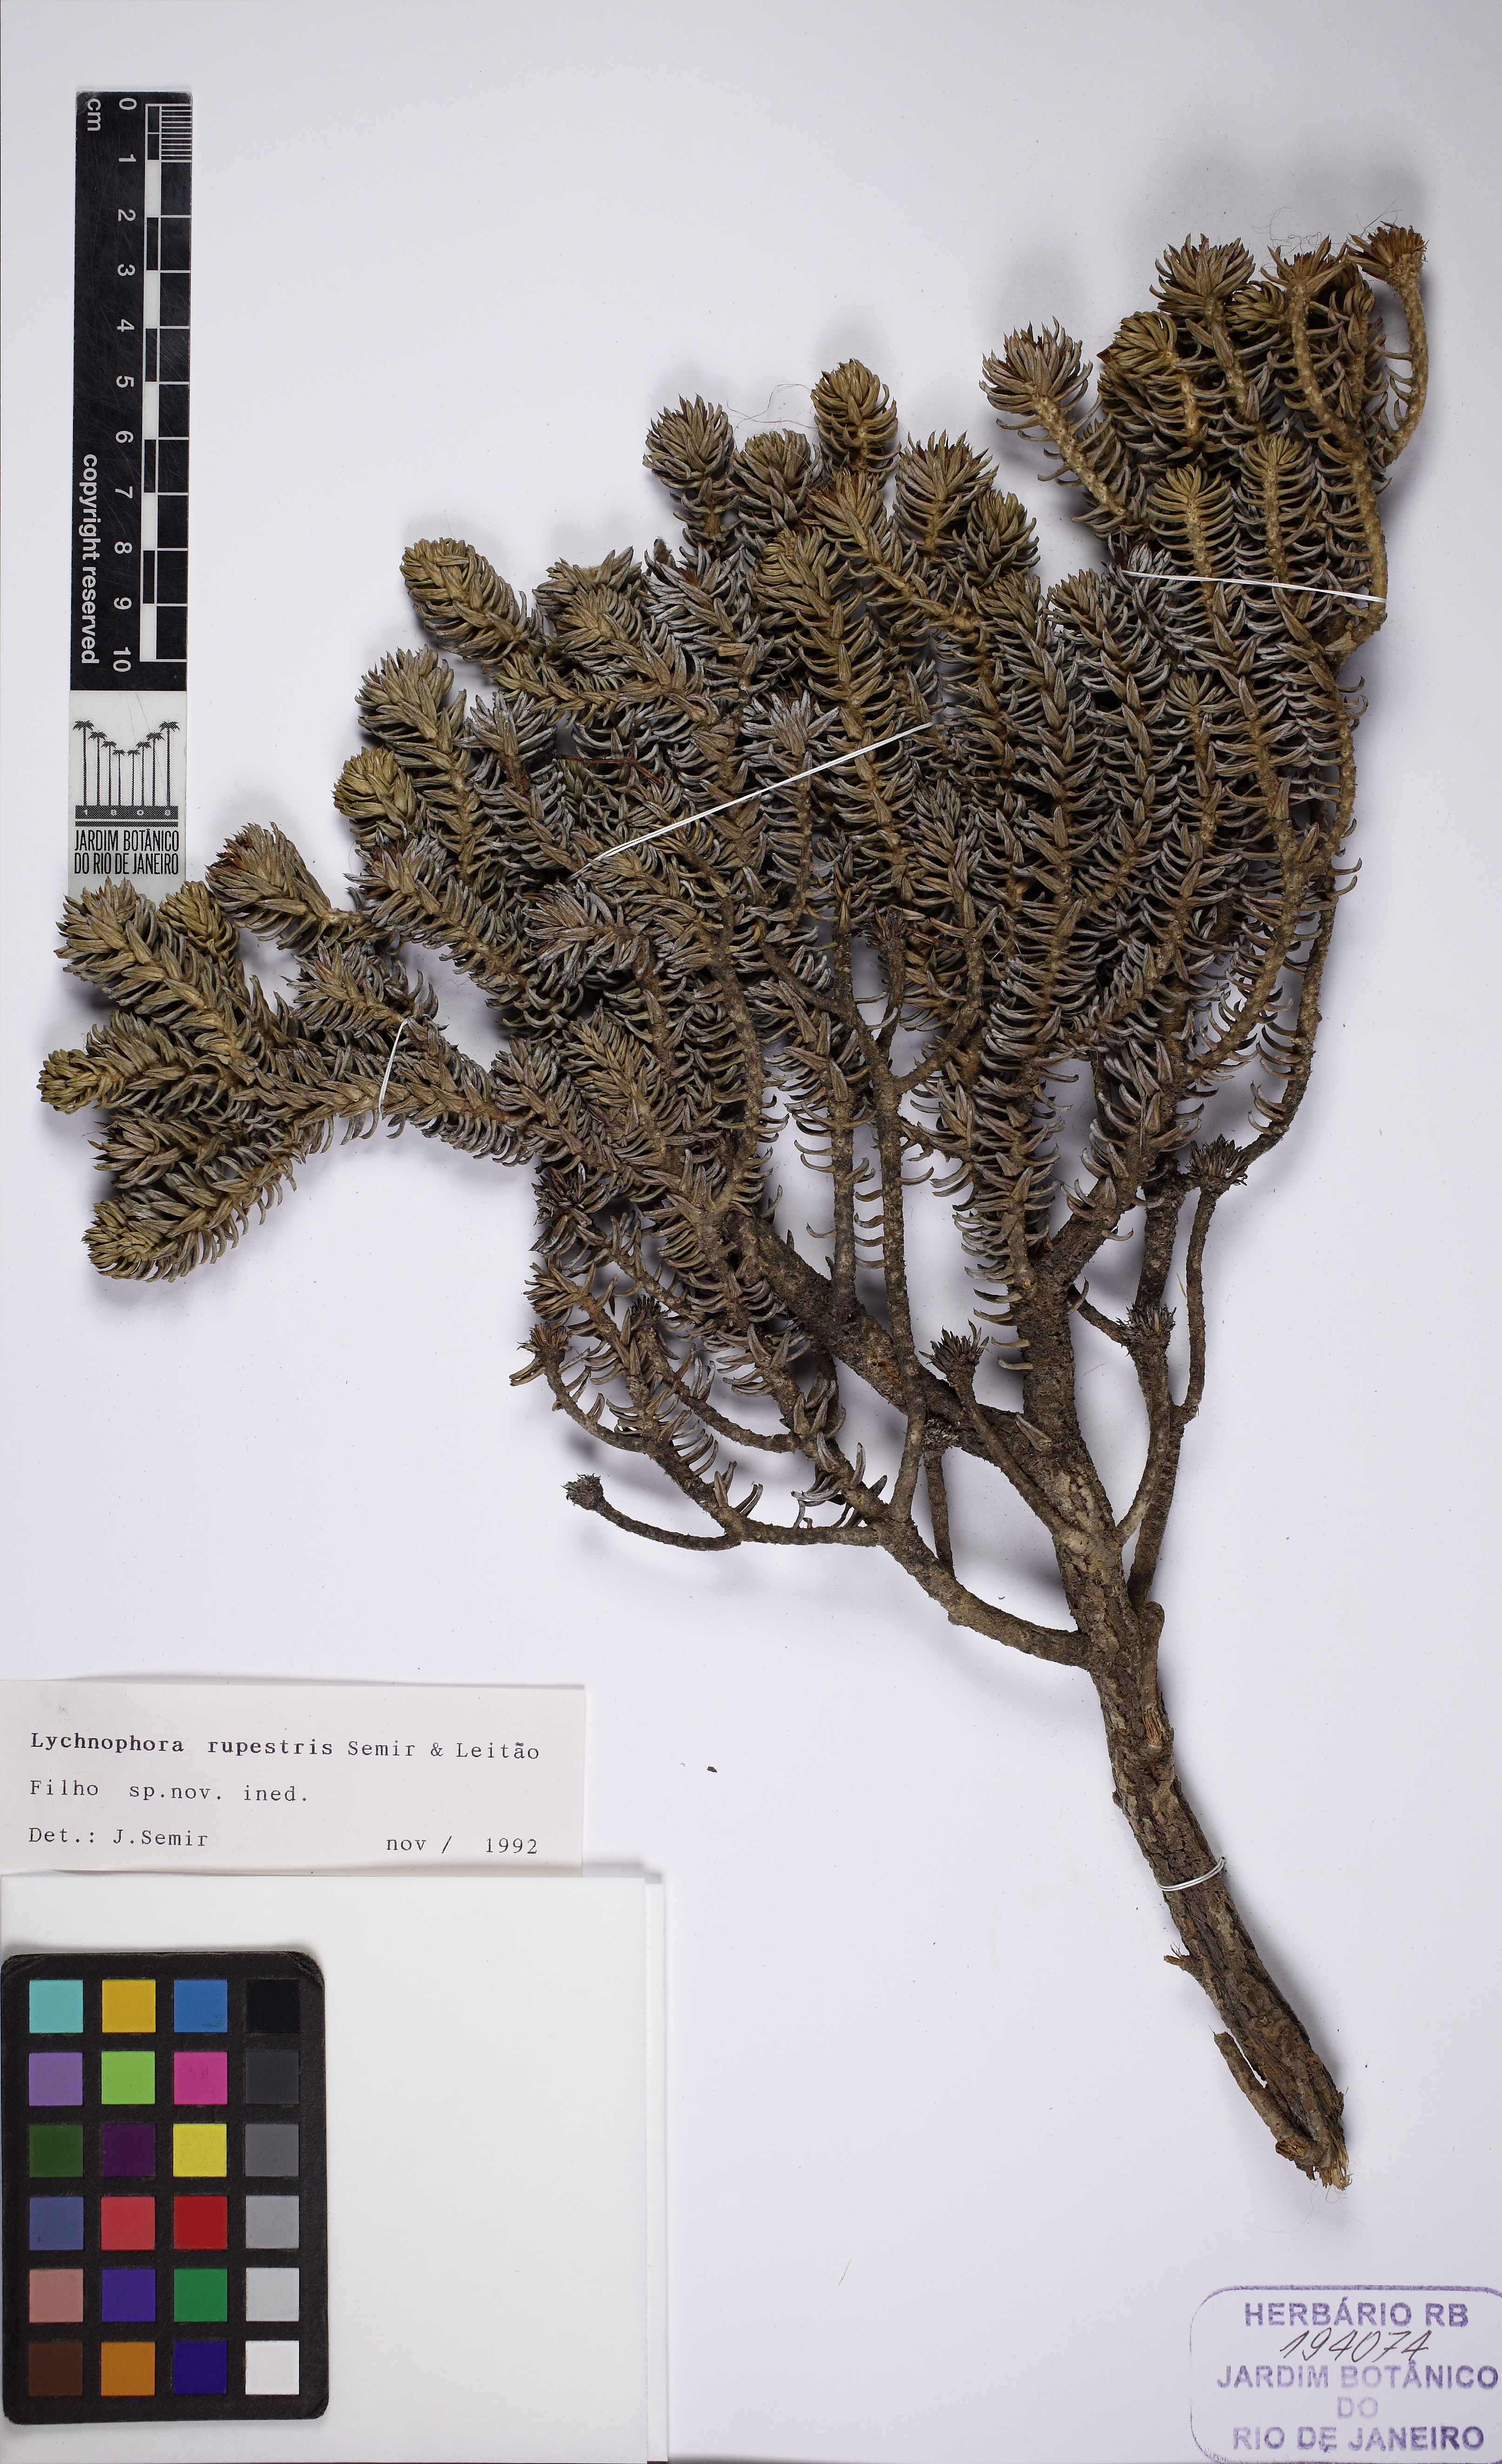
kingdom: Plantae
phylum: Tracheophyta
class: Magnoliopsida
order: Asterales
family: Asteraceae
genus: Lychnophora
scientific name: Lychnophora rupestris
